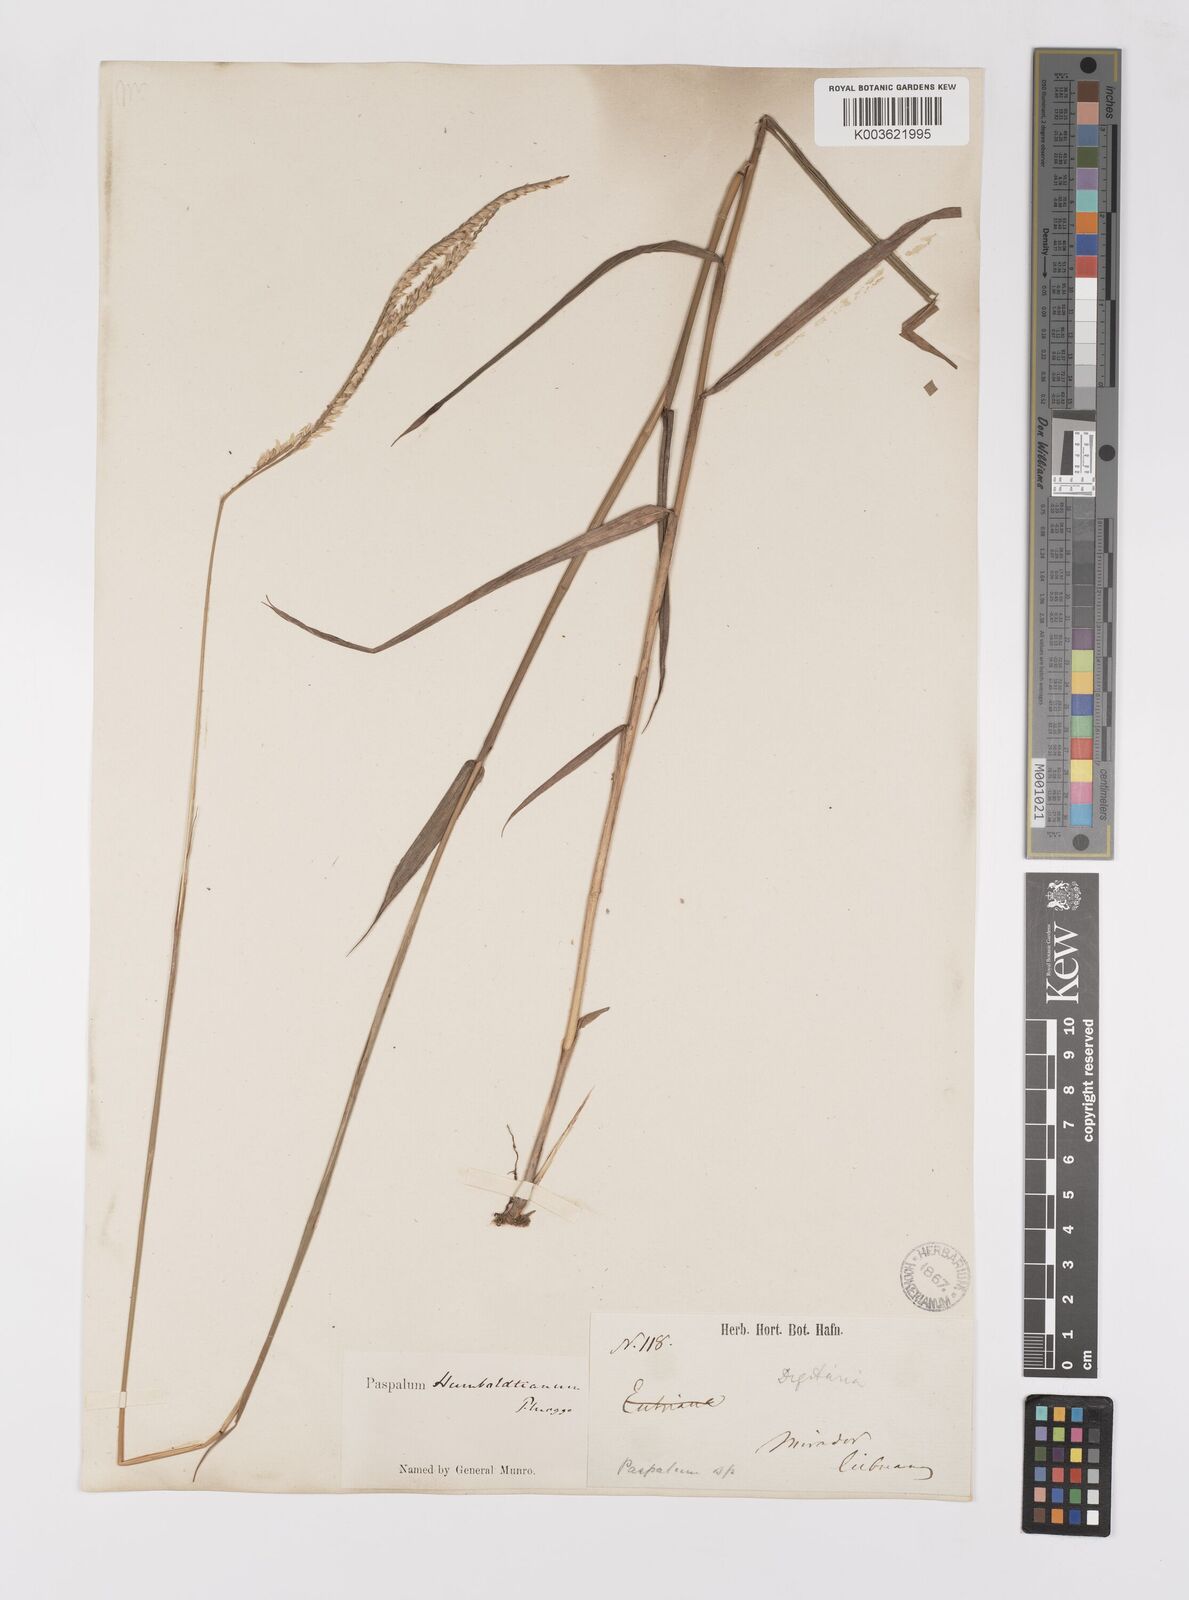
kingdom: Plantae
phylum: Tracheophyta
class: Liliopsida
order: Poales
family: Poaceae
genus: Paspalum
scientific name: Paspalum humboldtianum
